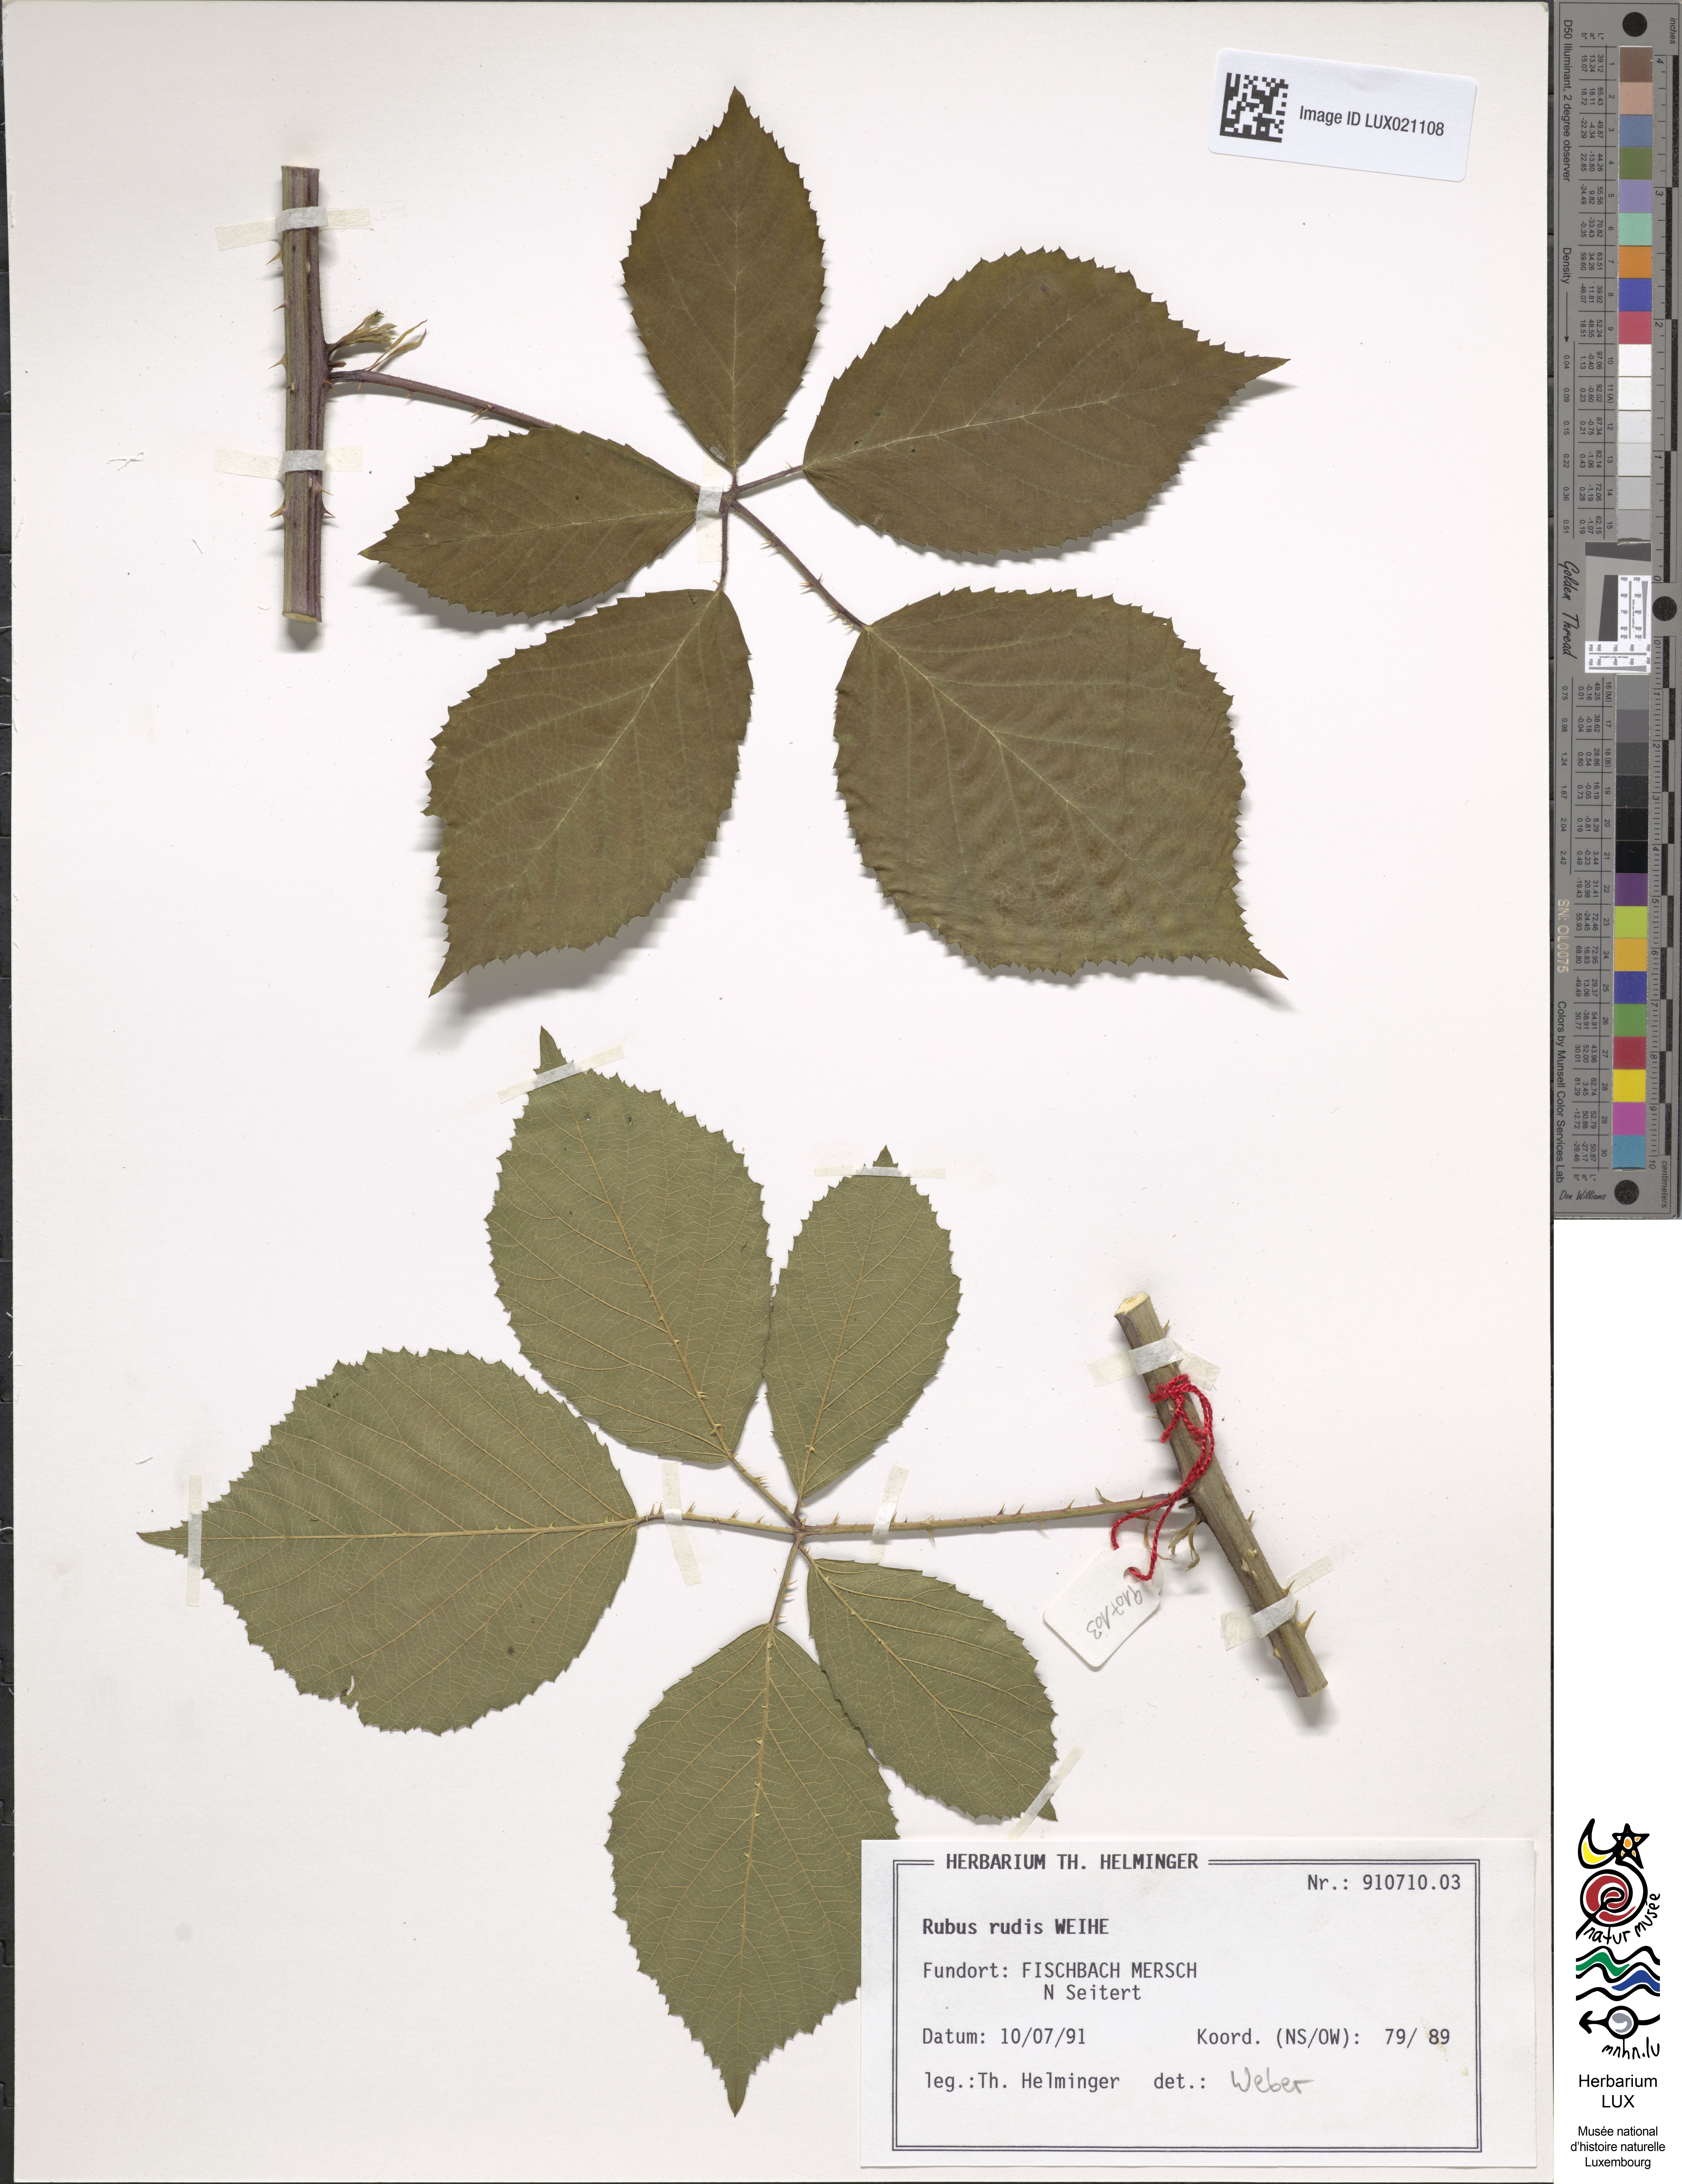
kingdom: Plantae
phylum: Tracheophyta
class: Magnoliopsida
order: Rosales
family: Rosaceae
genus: Rubus
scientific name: Rubus rudis
